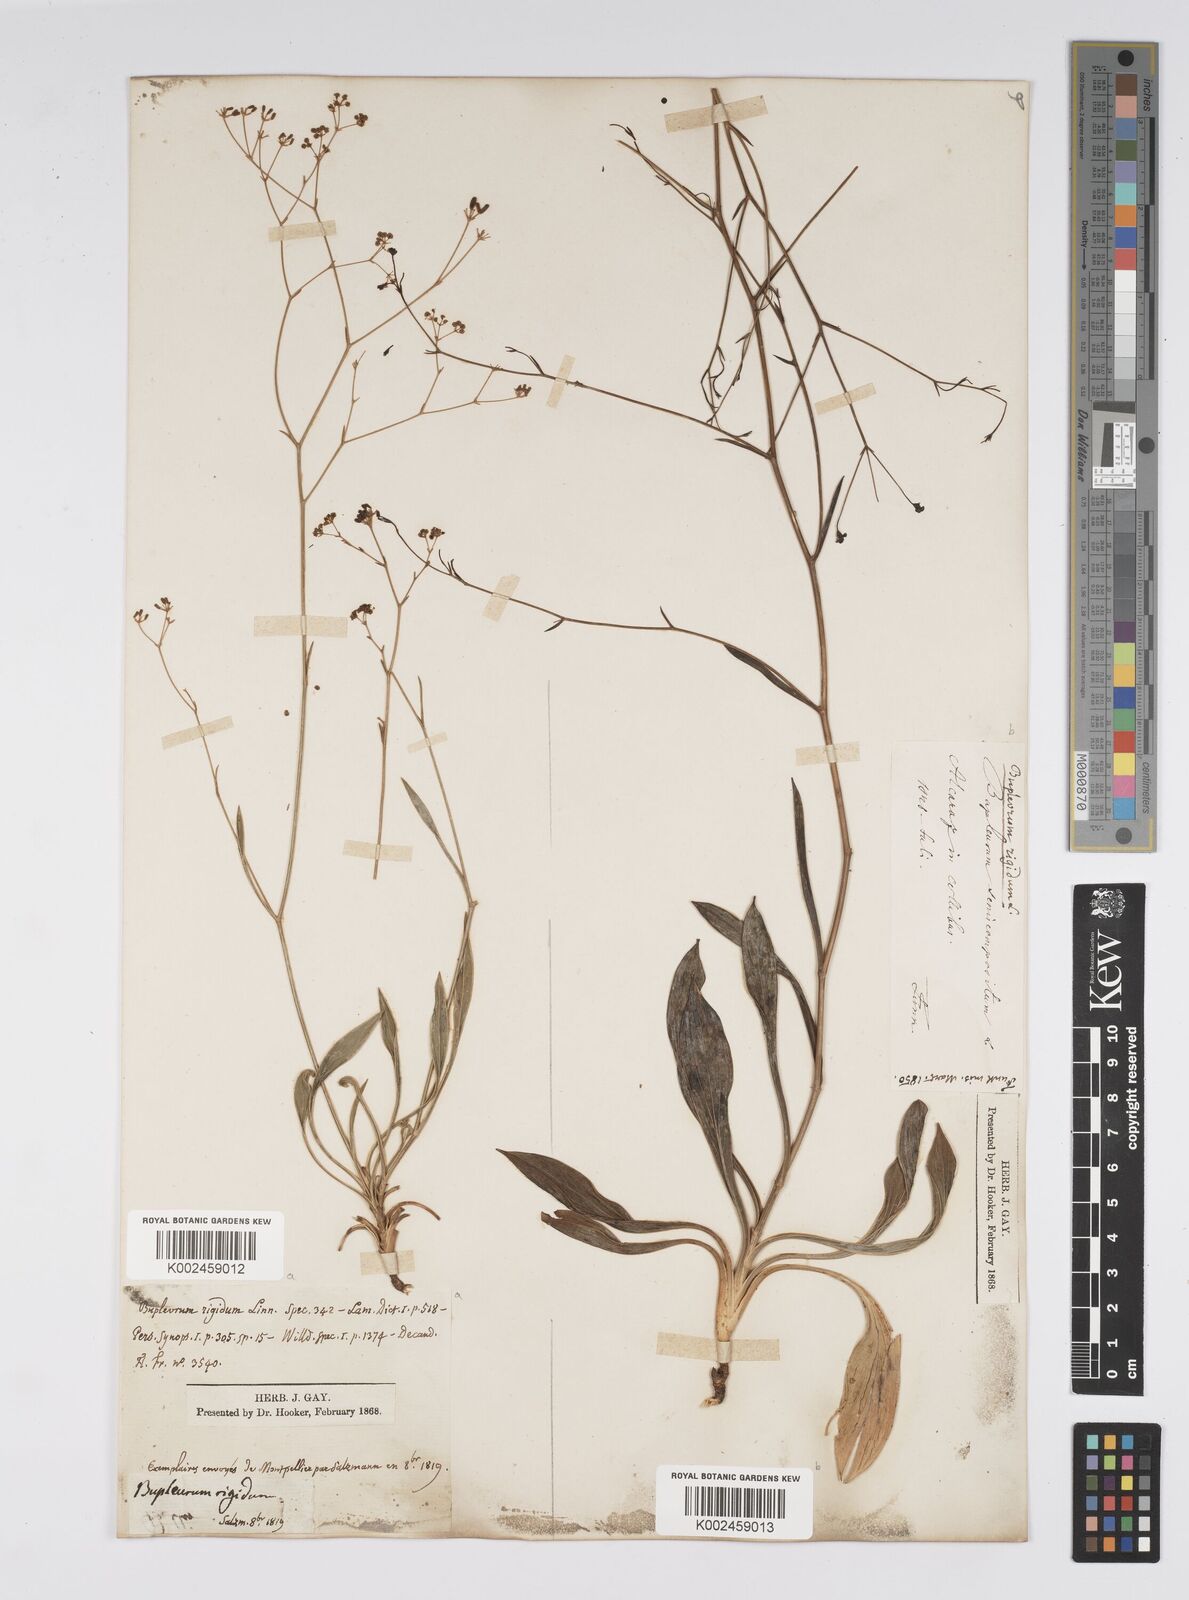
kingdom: Plantae
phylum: Tracheophyta
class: Magnoliopsida
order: Apiales
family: Apiaceae
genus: Bupleurum
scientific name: Bupleurum rigidum
